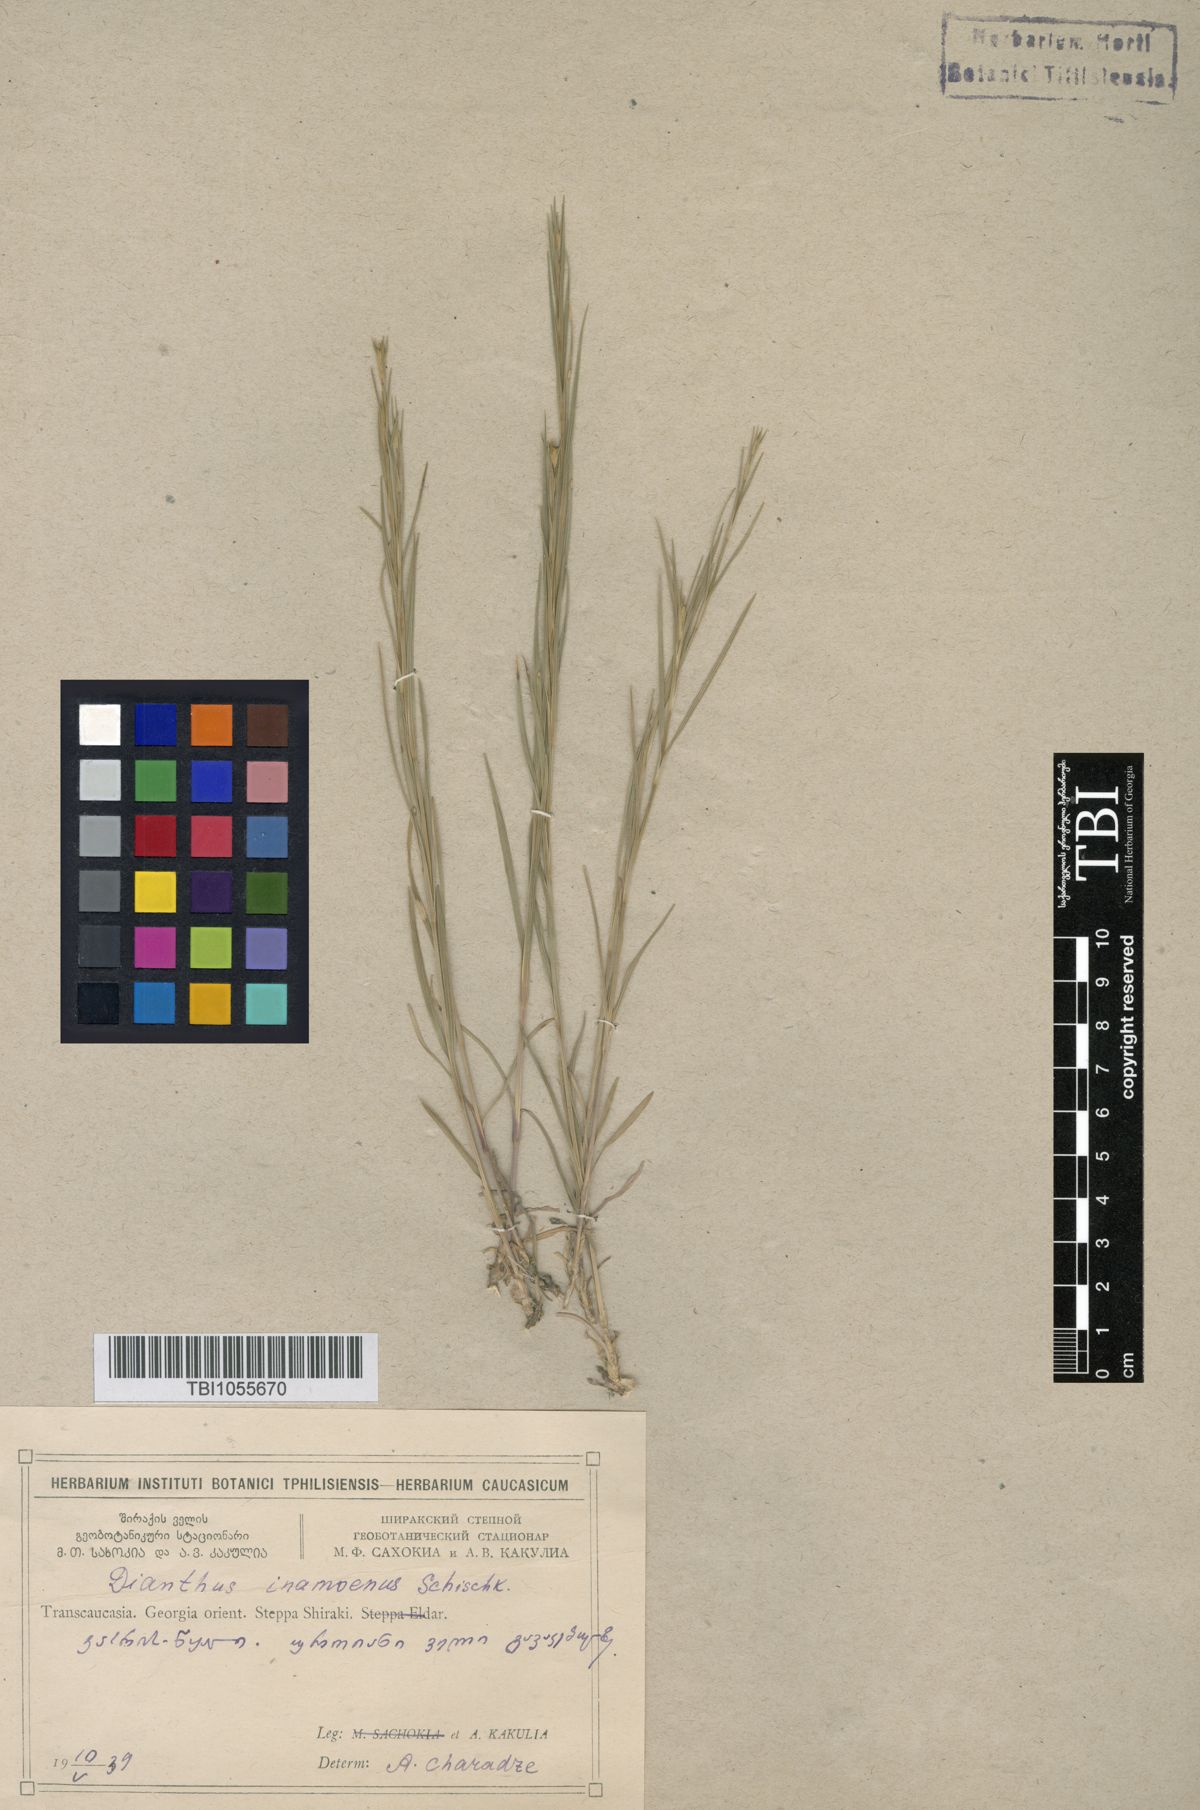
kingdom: Plantae
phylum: Tracheophyta
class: Magnoliopsida
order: Caryophyllales
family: Caryophyllaceae
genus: Dianthus
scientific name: Dianthus inamoenus
